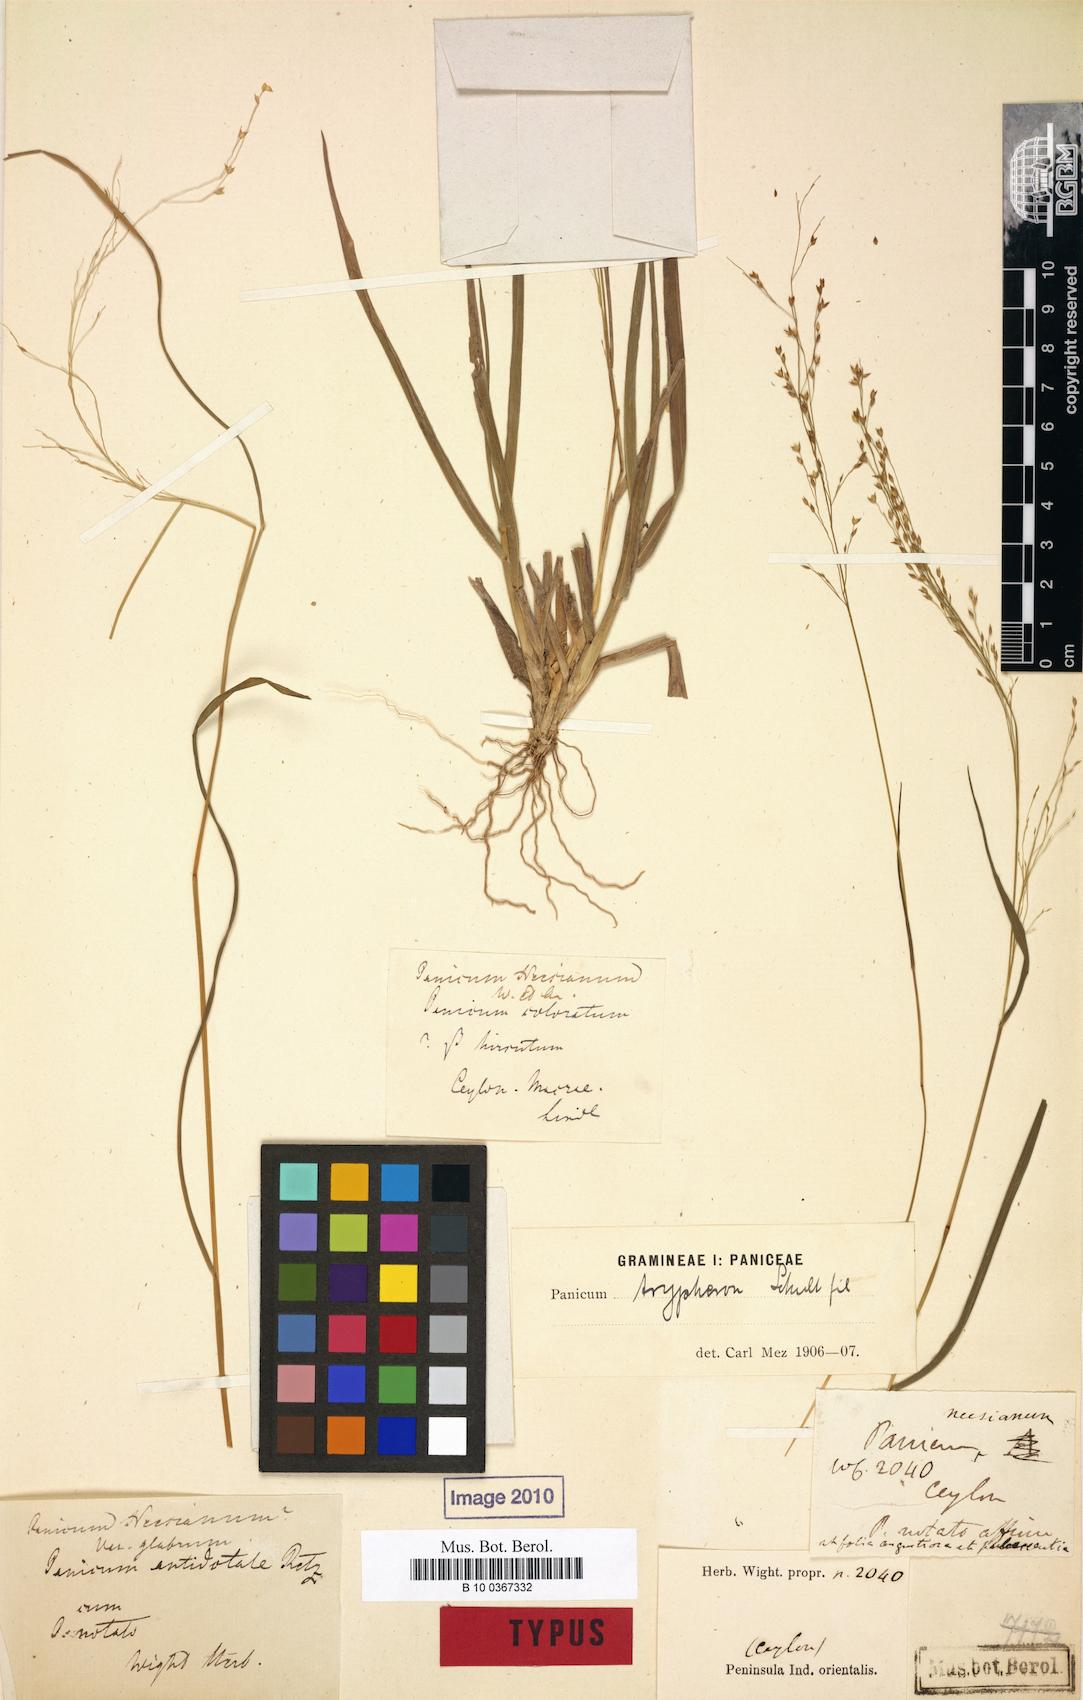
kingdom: Plantae
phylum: Tracheophyta
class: Liliopsida
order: Poales
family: Poaceae
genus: Panicum
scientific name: Panicum curviflorum
